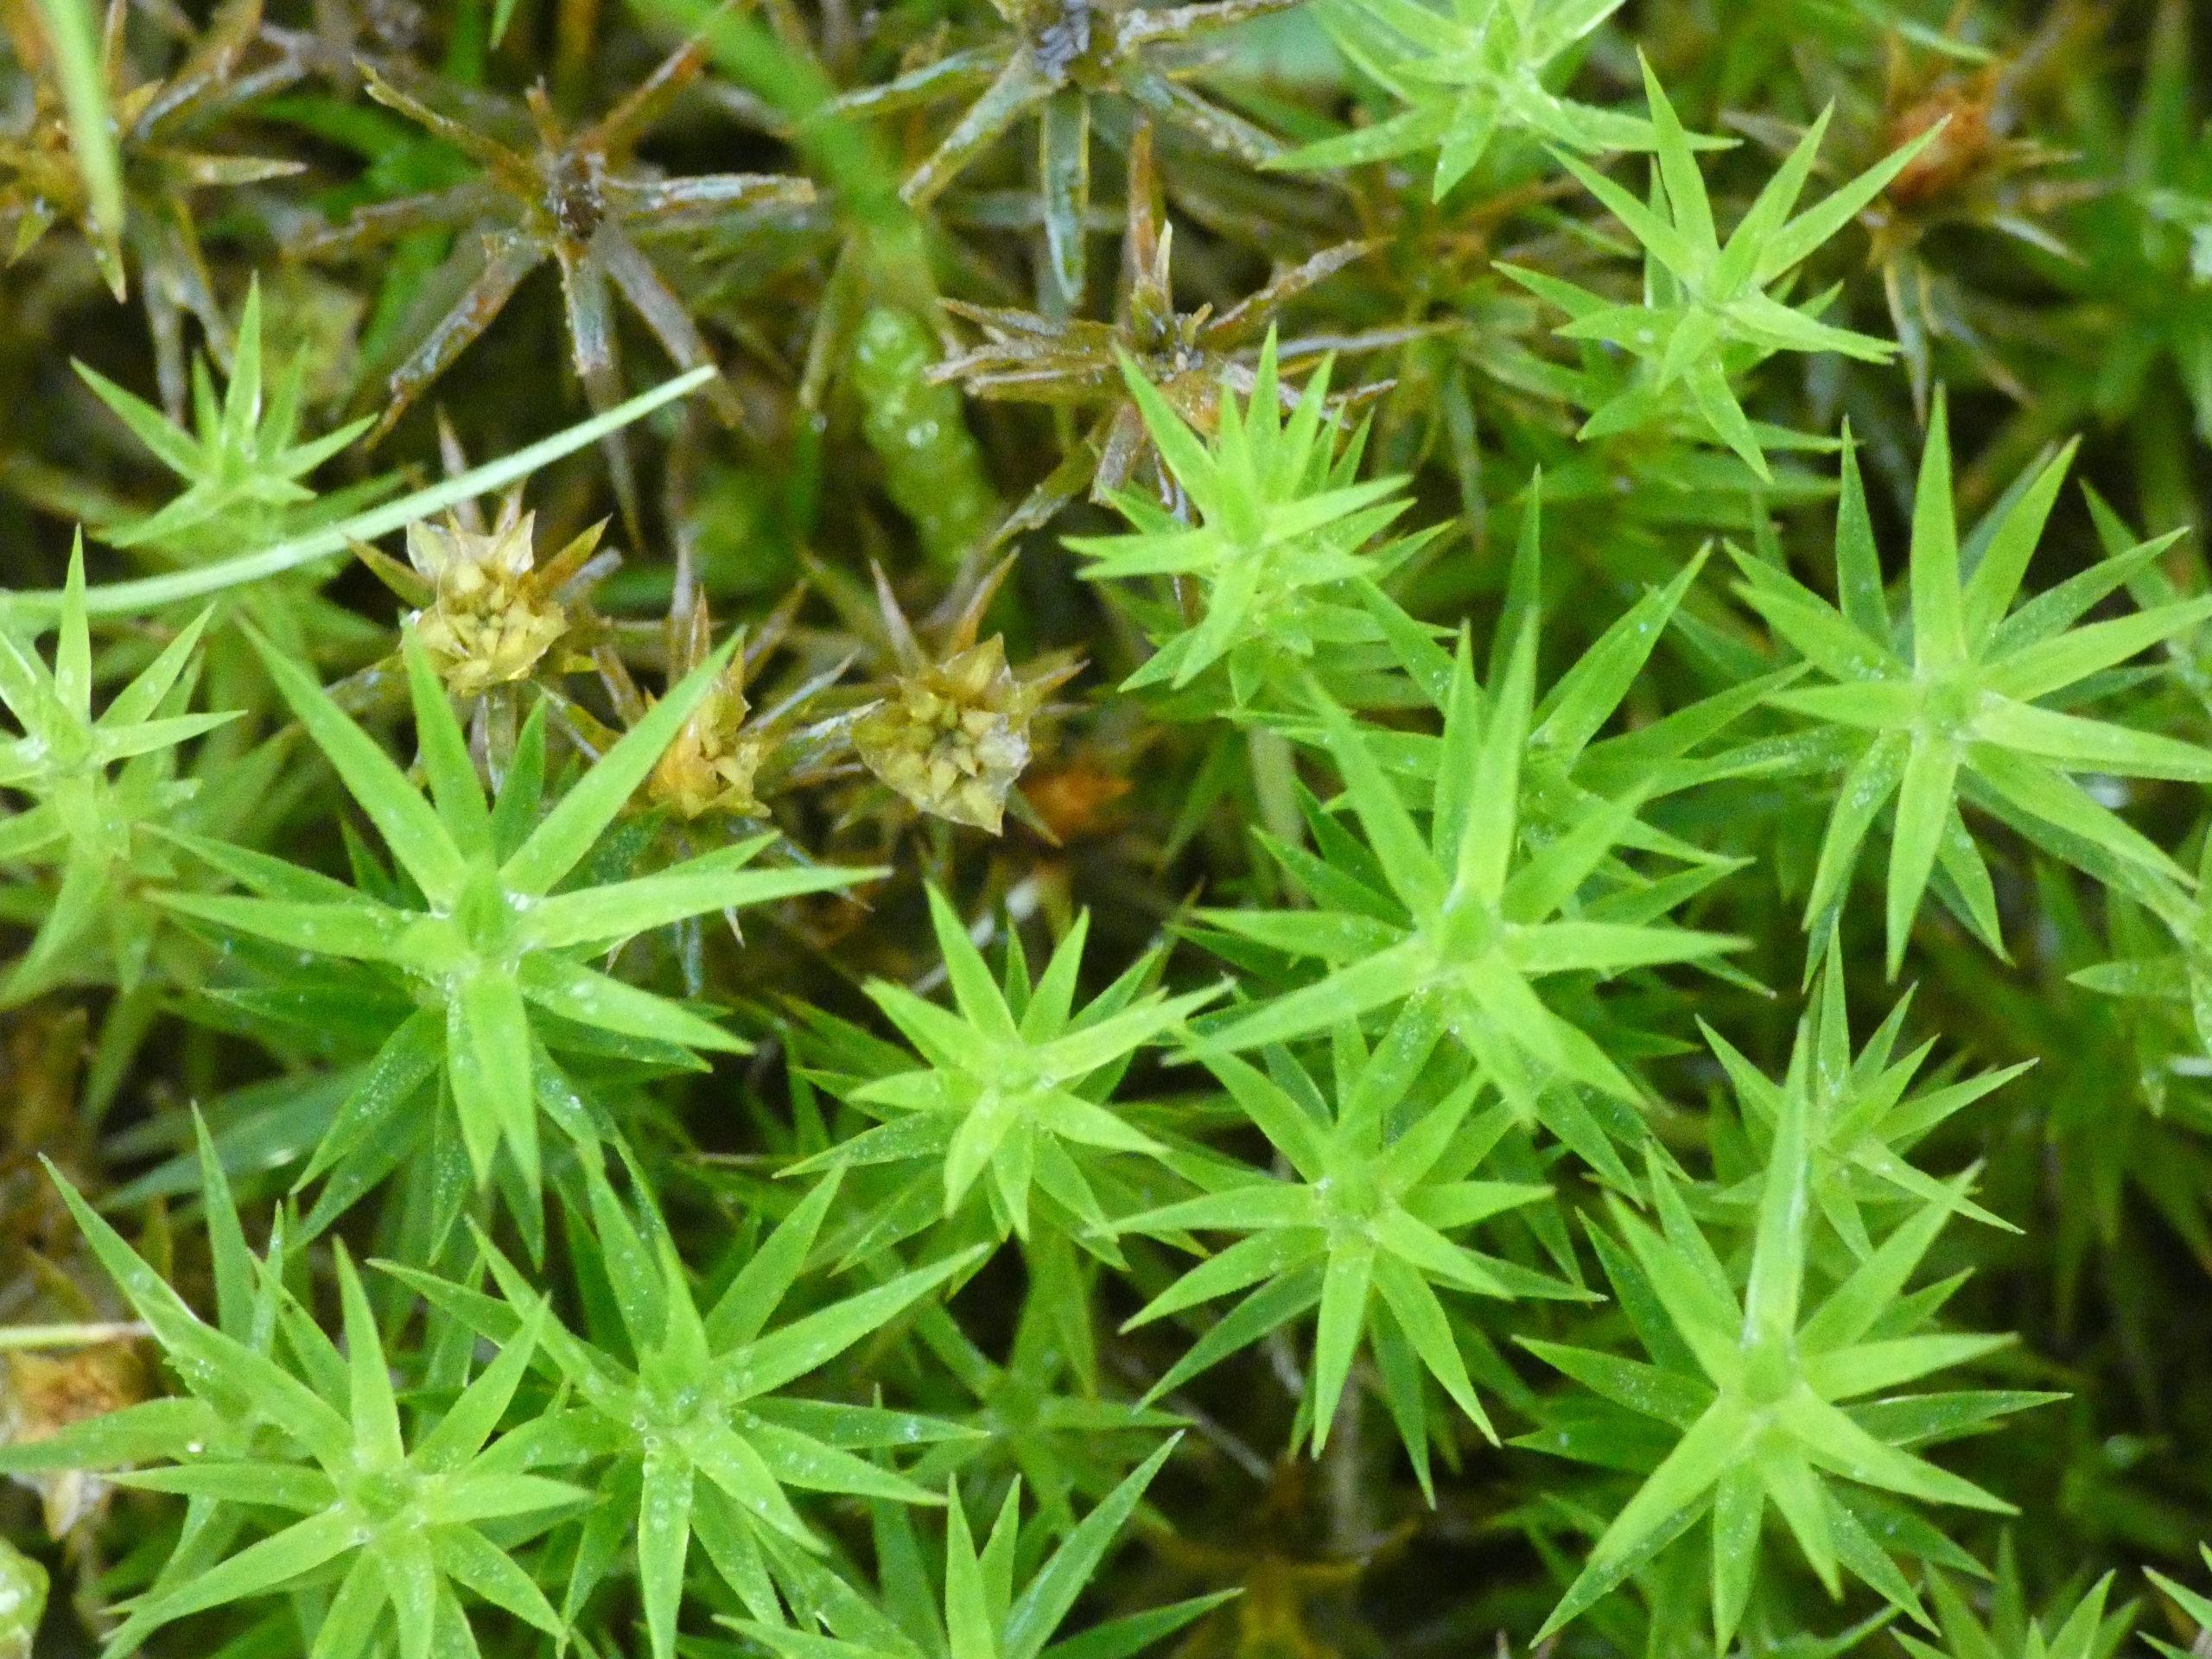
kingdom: Plantae
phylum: Bryophyta
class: Polytrichopsida
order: Polytrichales
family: Polytrichaceae
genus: Polytrichum
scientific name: Polytrichum formosum
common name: Skov-jomfruhår
